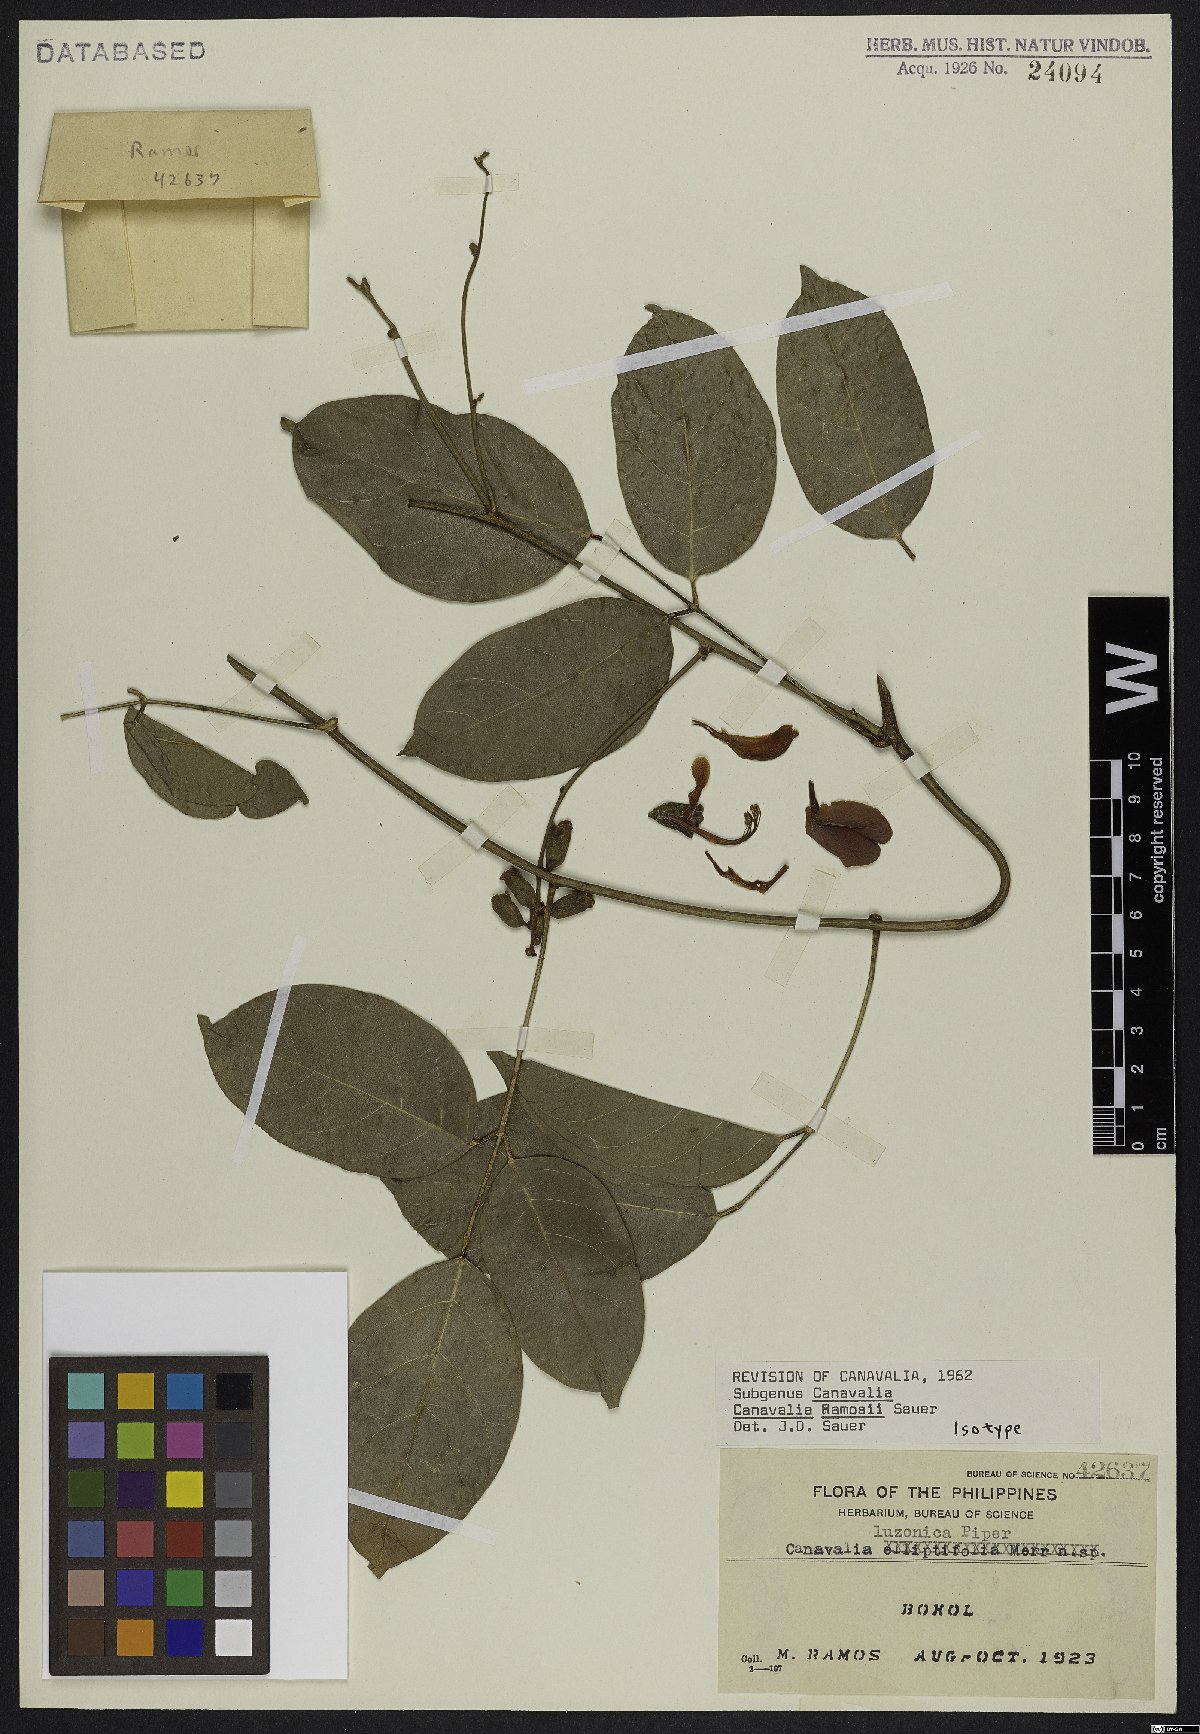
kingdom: Plantae
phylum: Tracheophyta
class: Magnoliopsida
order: Fabales
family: Fabaceae
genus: Canavalia
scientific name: Canavalia ramosii
